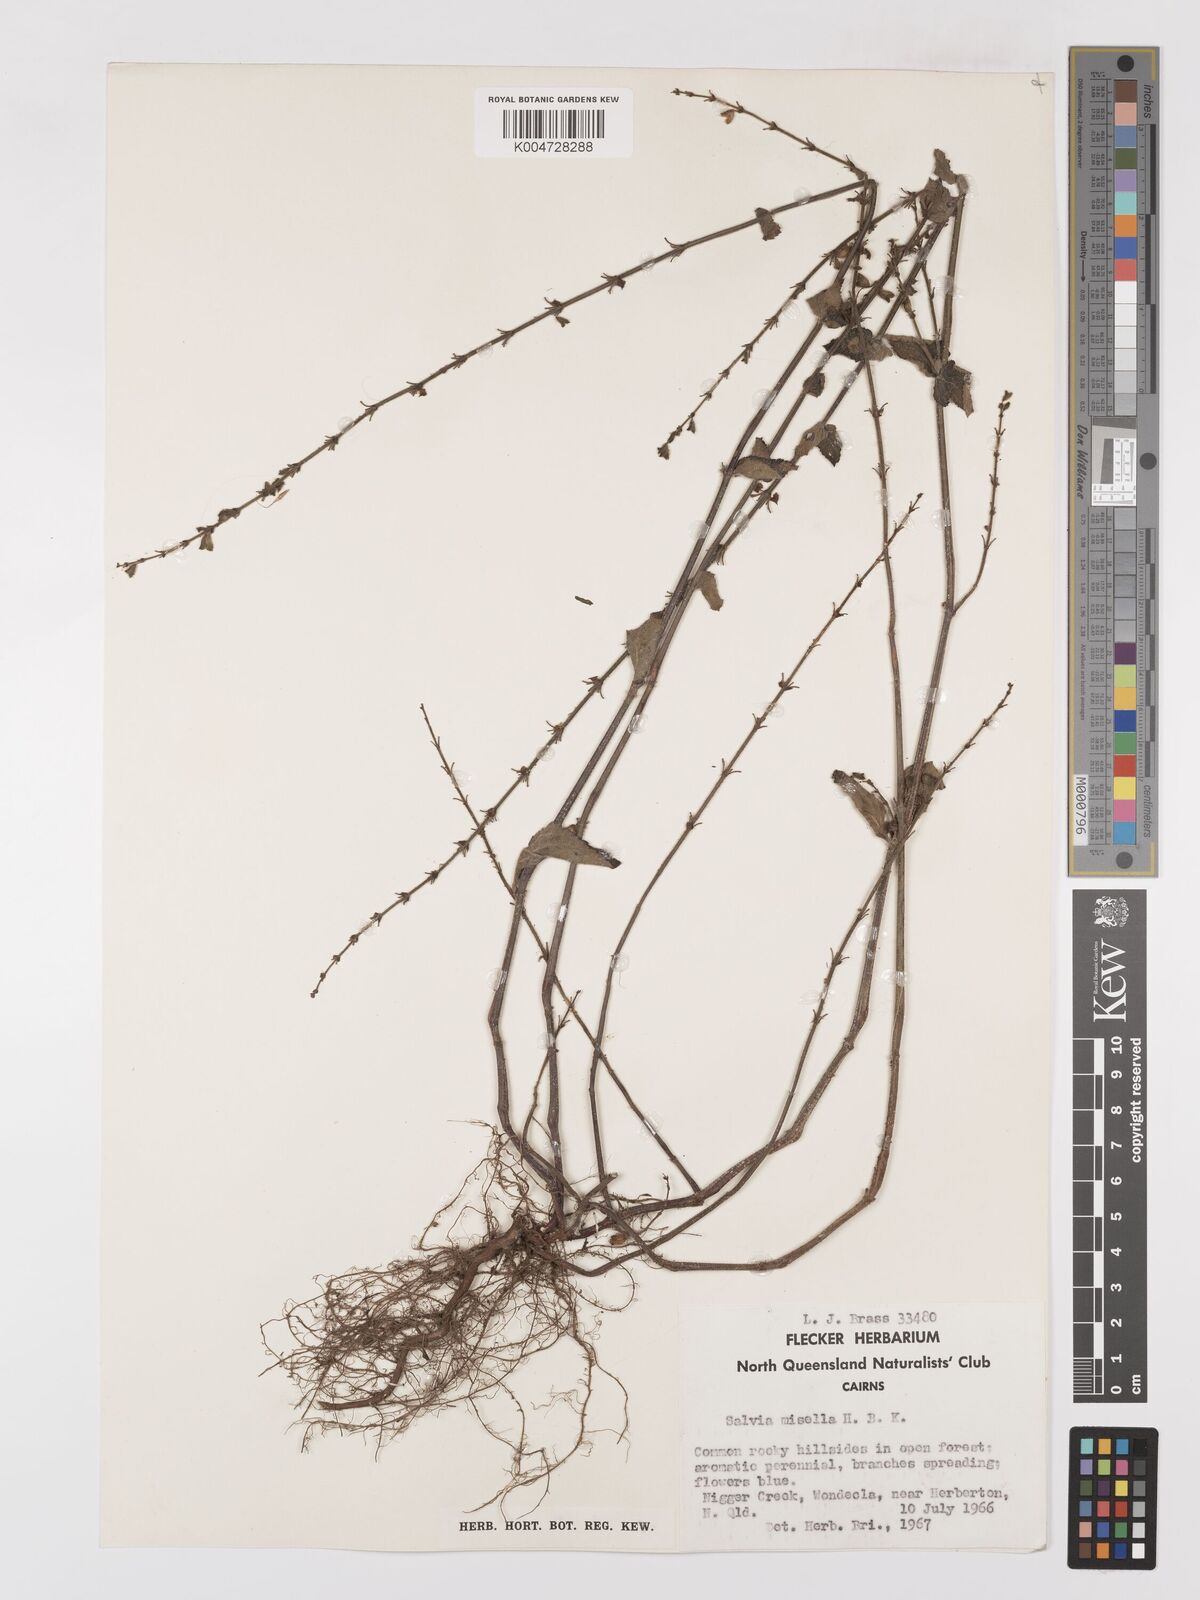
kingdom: Plantae
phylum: Tracheophyta
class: Magnoliopsida
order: Lamiales
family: Lamiaceae
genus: Salvia
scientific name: Salvia misella
